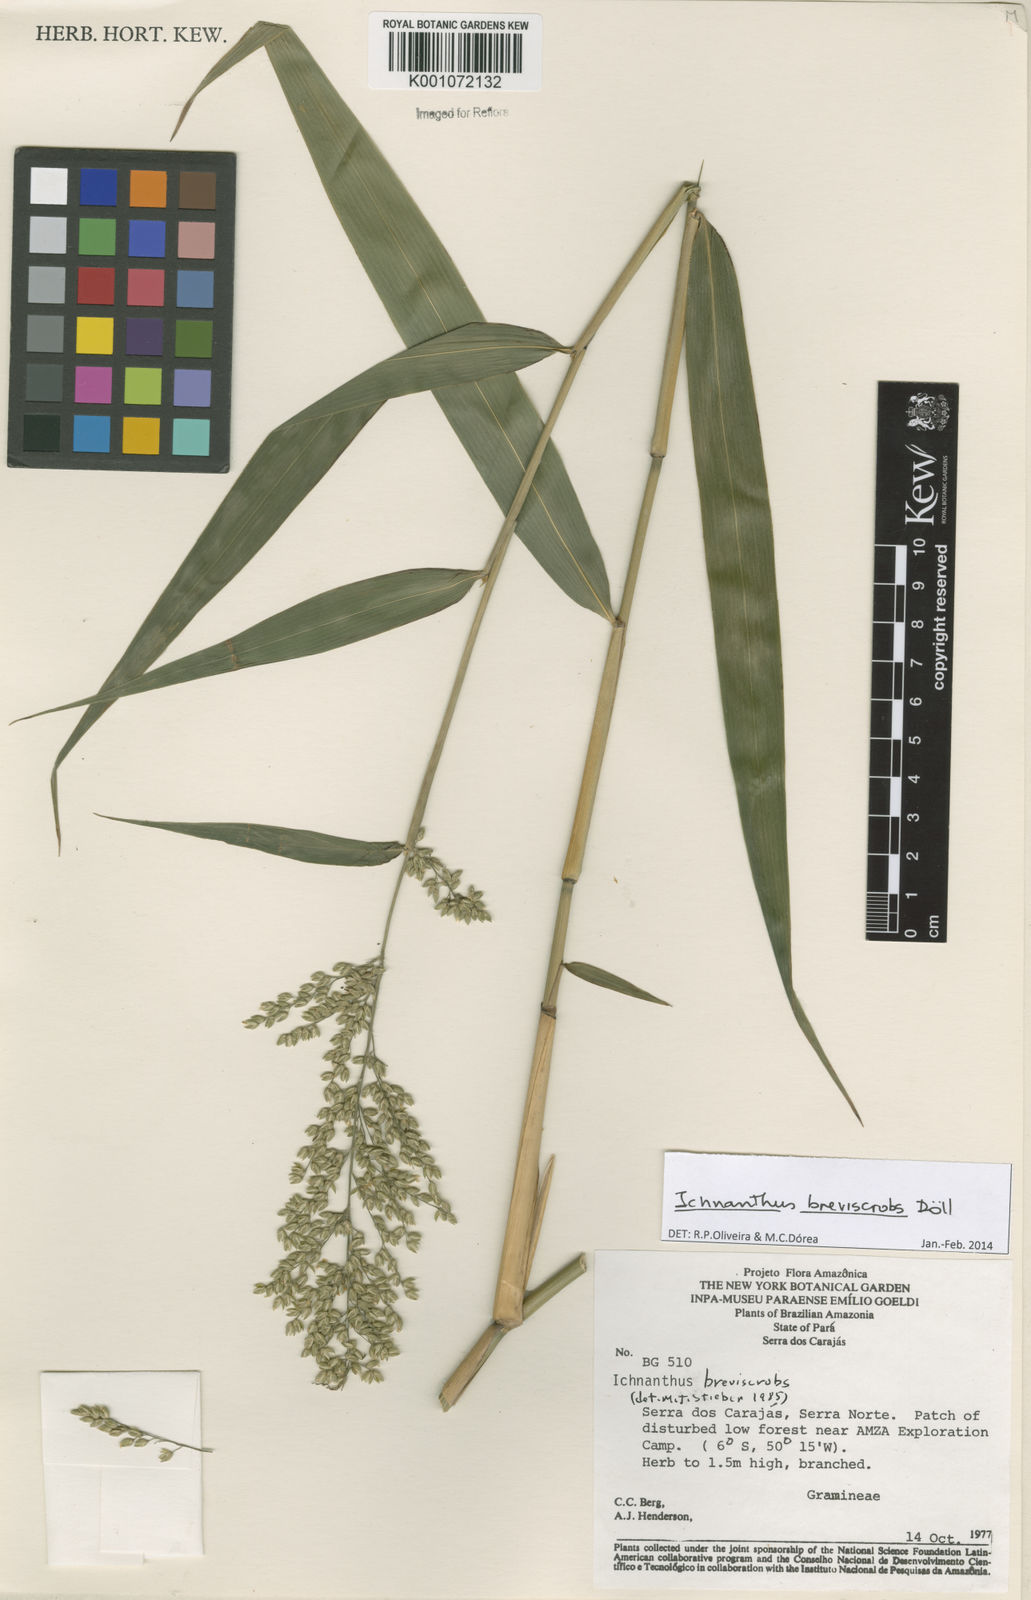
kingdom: Plantae
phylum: Tracheophyta
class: Liliopsida
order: Poales
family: Poaceae
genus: Ichnanthus
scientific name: Ichnanthus
